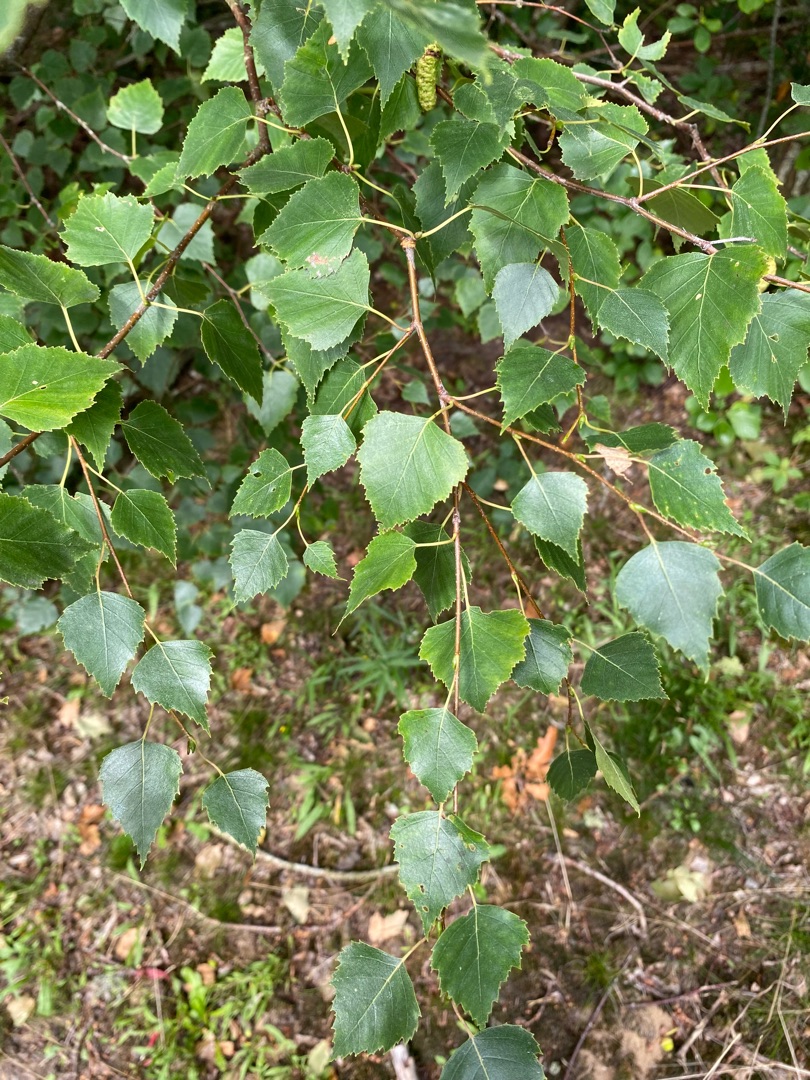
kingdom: Plantae
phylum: Tracheophyta
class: Magnoliopsida
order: Fagales
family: Betulaceae
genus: Betula
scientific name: Betula pendula
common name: Vorte-birk
